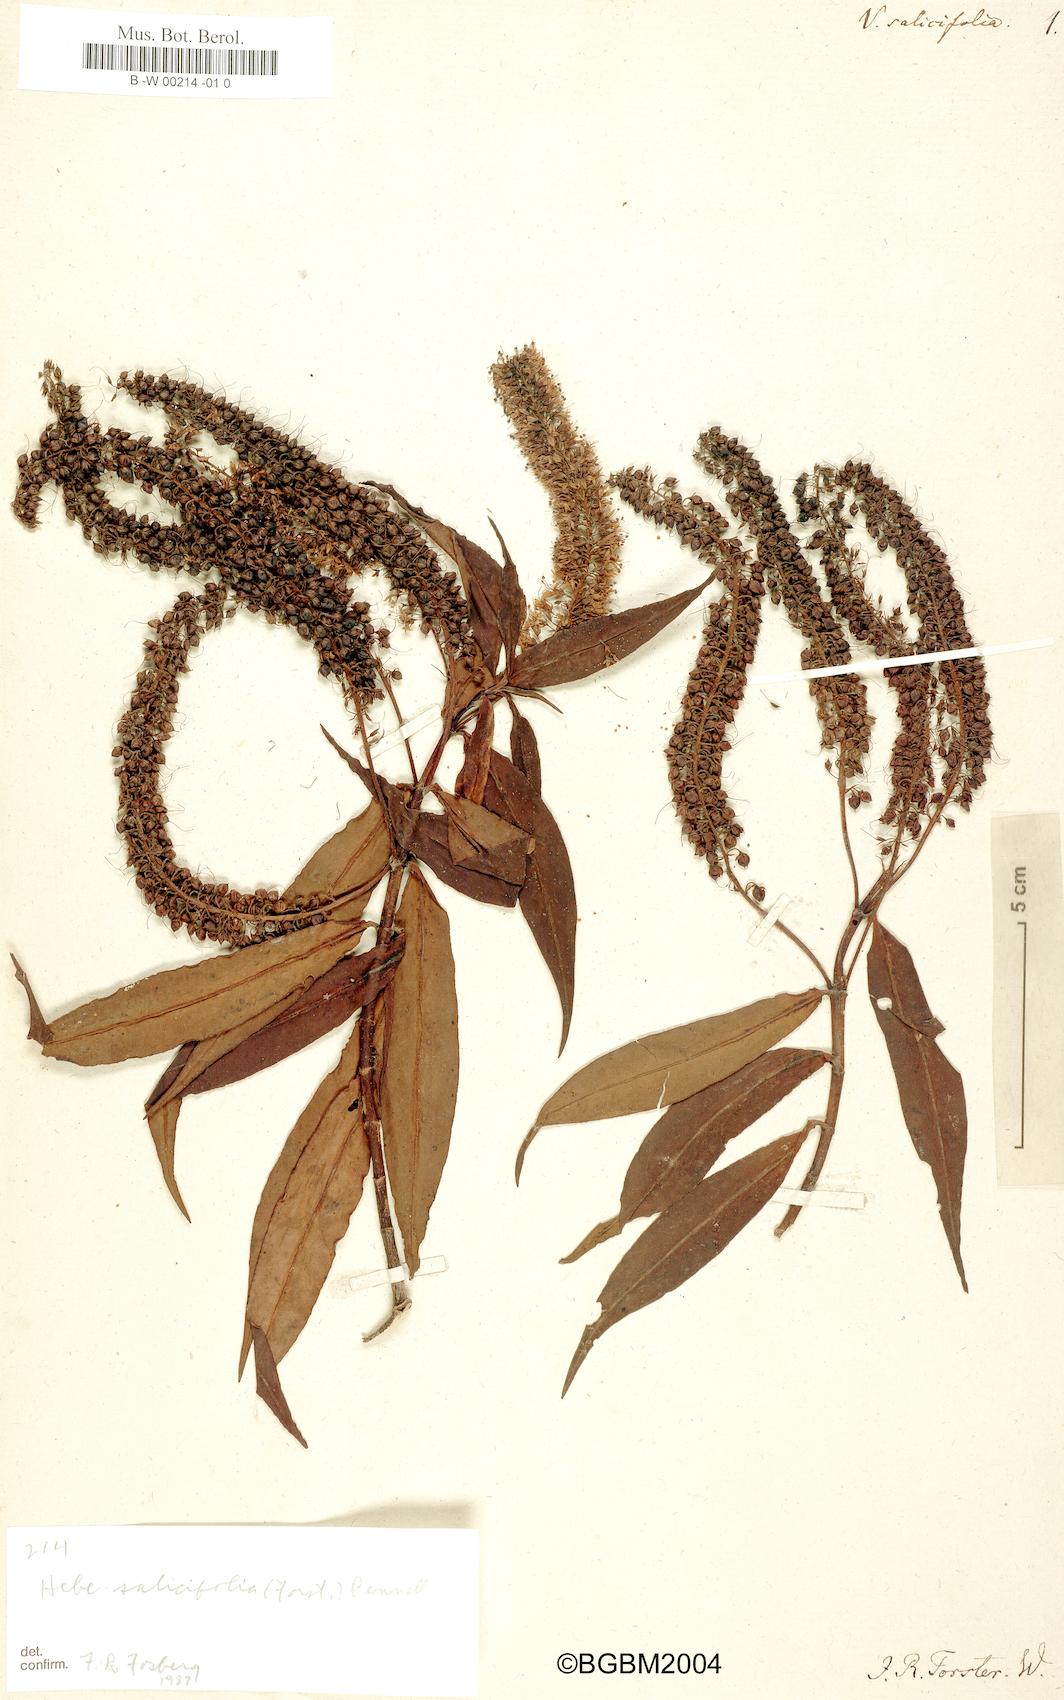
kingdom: Plantae
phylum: Tracheophyta
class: Magnoliopsida
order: Lamiales
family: Plantaginaceae
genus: Veronica
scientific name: Veronica salicifolia
